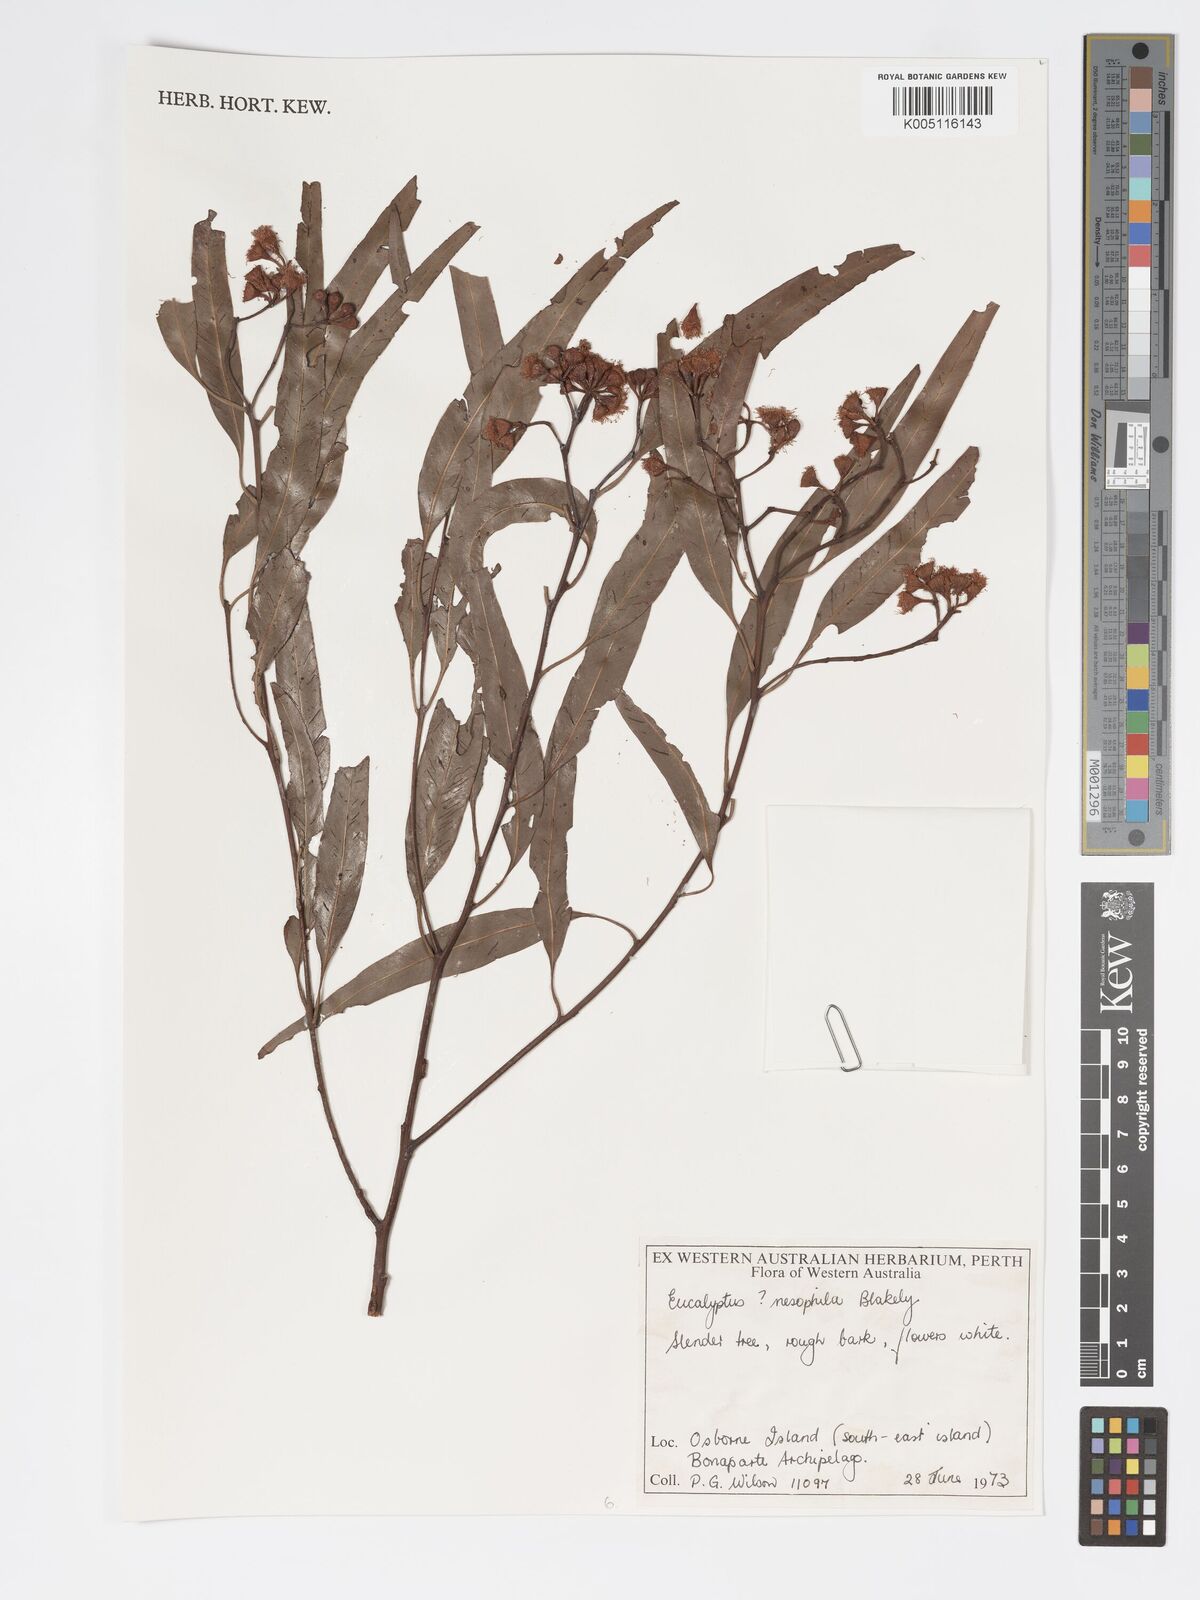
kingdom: Plantae
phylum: Tracheophyta
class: Magnoliopsida
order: Myrtales
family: Myrtaceae
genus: Corymbia
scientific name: Corymbia nesophila
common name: Melville-island-bloodwood
